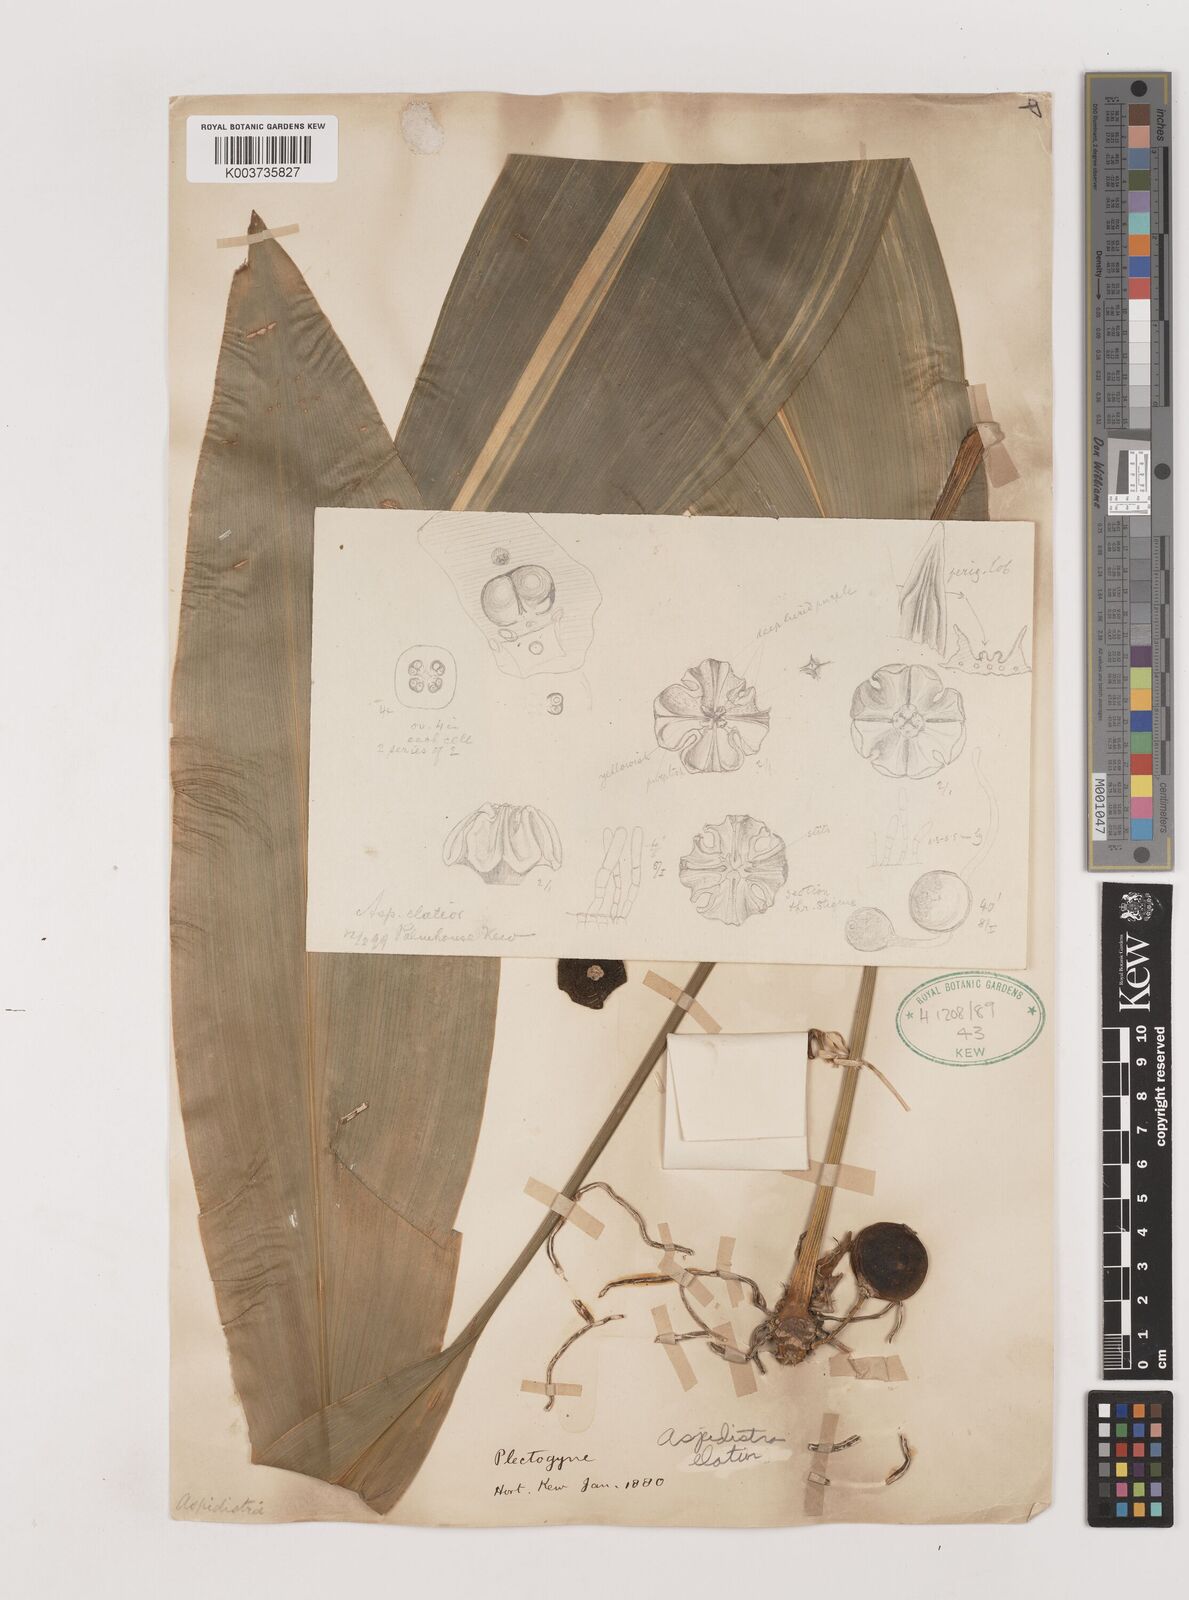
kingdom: Plantae
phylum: Tracheophyta
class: Liliopsida
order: Asparagales
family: Asparagaceae
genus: Aspidistra
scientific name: Aspidistra elatior
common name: Cast-iron-plant
